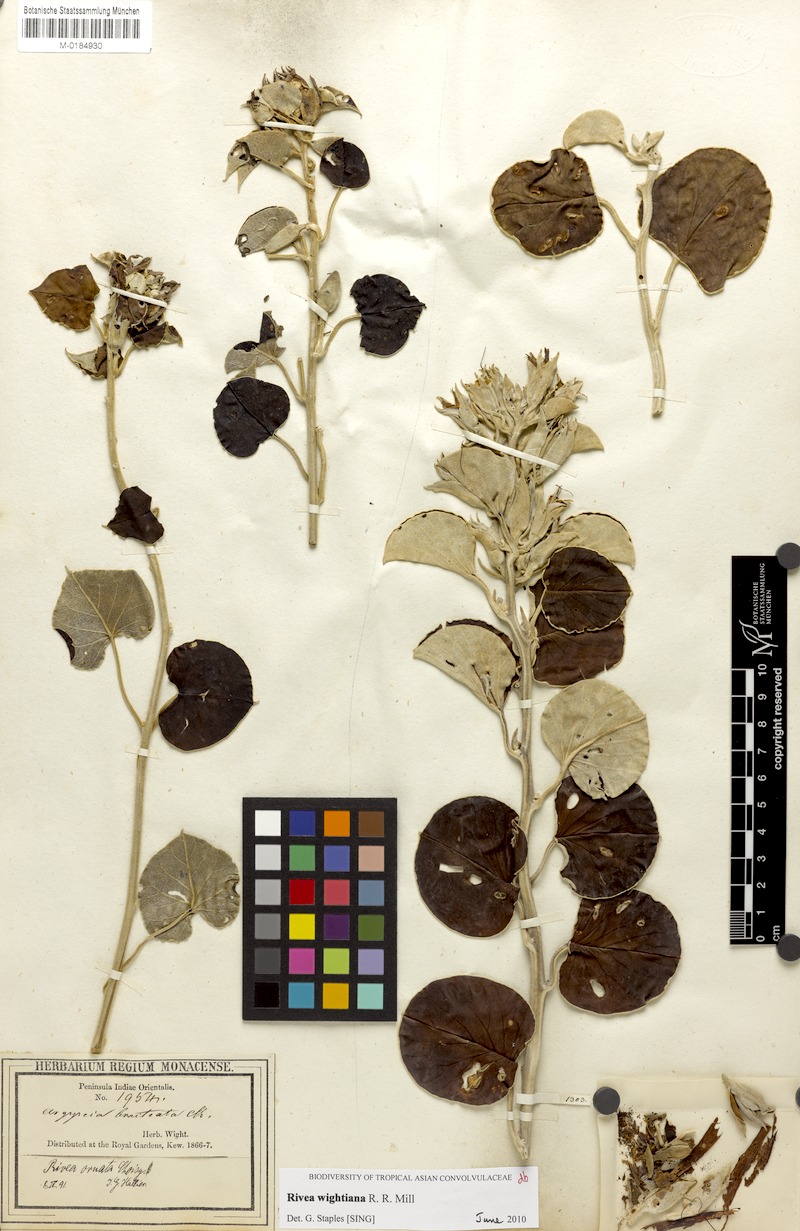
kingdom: Plantae
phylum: Tracheophyta
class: Magnoliopsida
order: Solanales
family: Convolvulaceae
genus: Rivea
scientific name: Rivea wightiana
